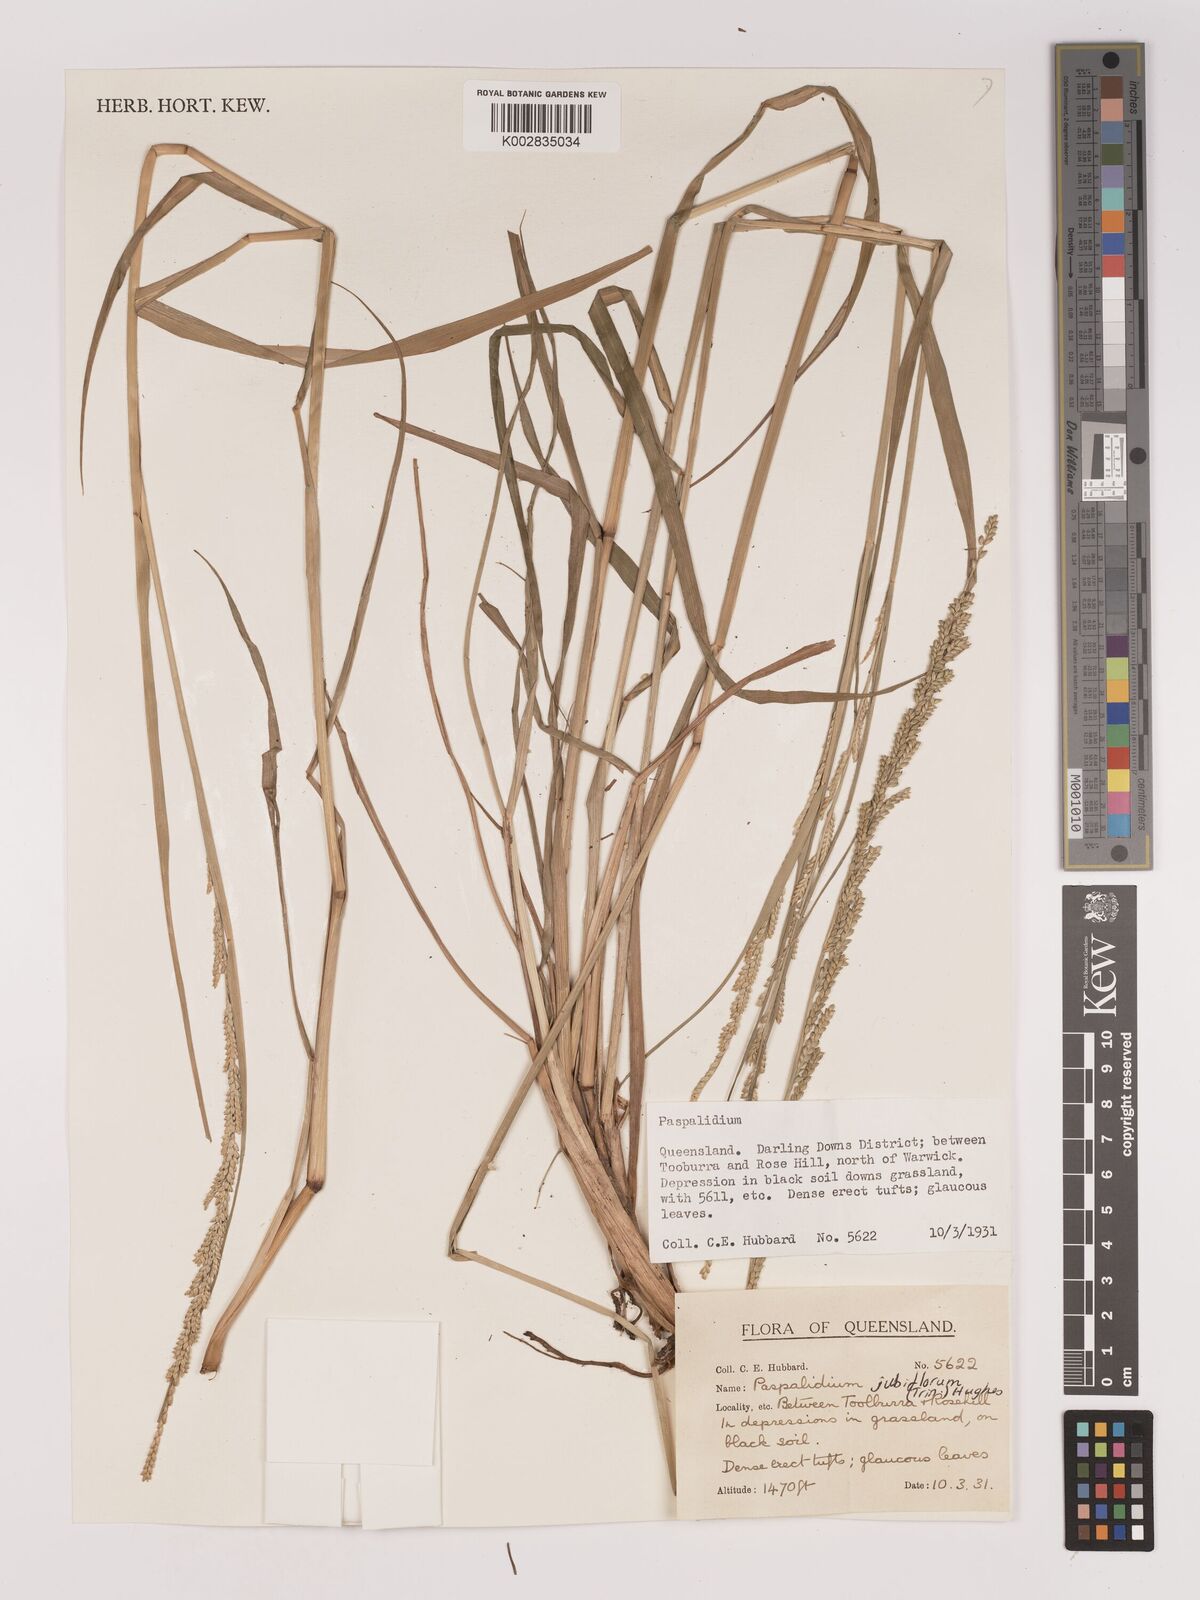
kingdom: Plantae
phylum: Tracheophyta
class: Liliopsida
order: Poales
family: Poaceae
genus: Setaria
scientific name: Setaria
